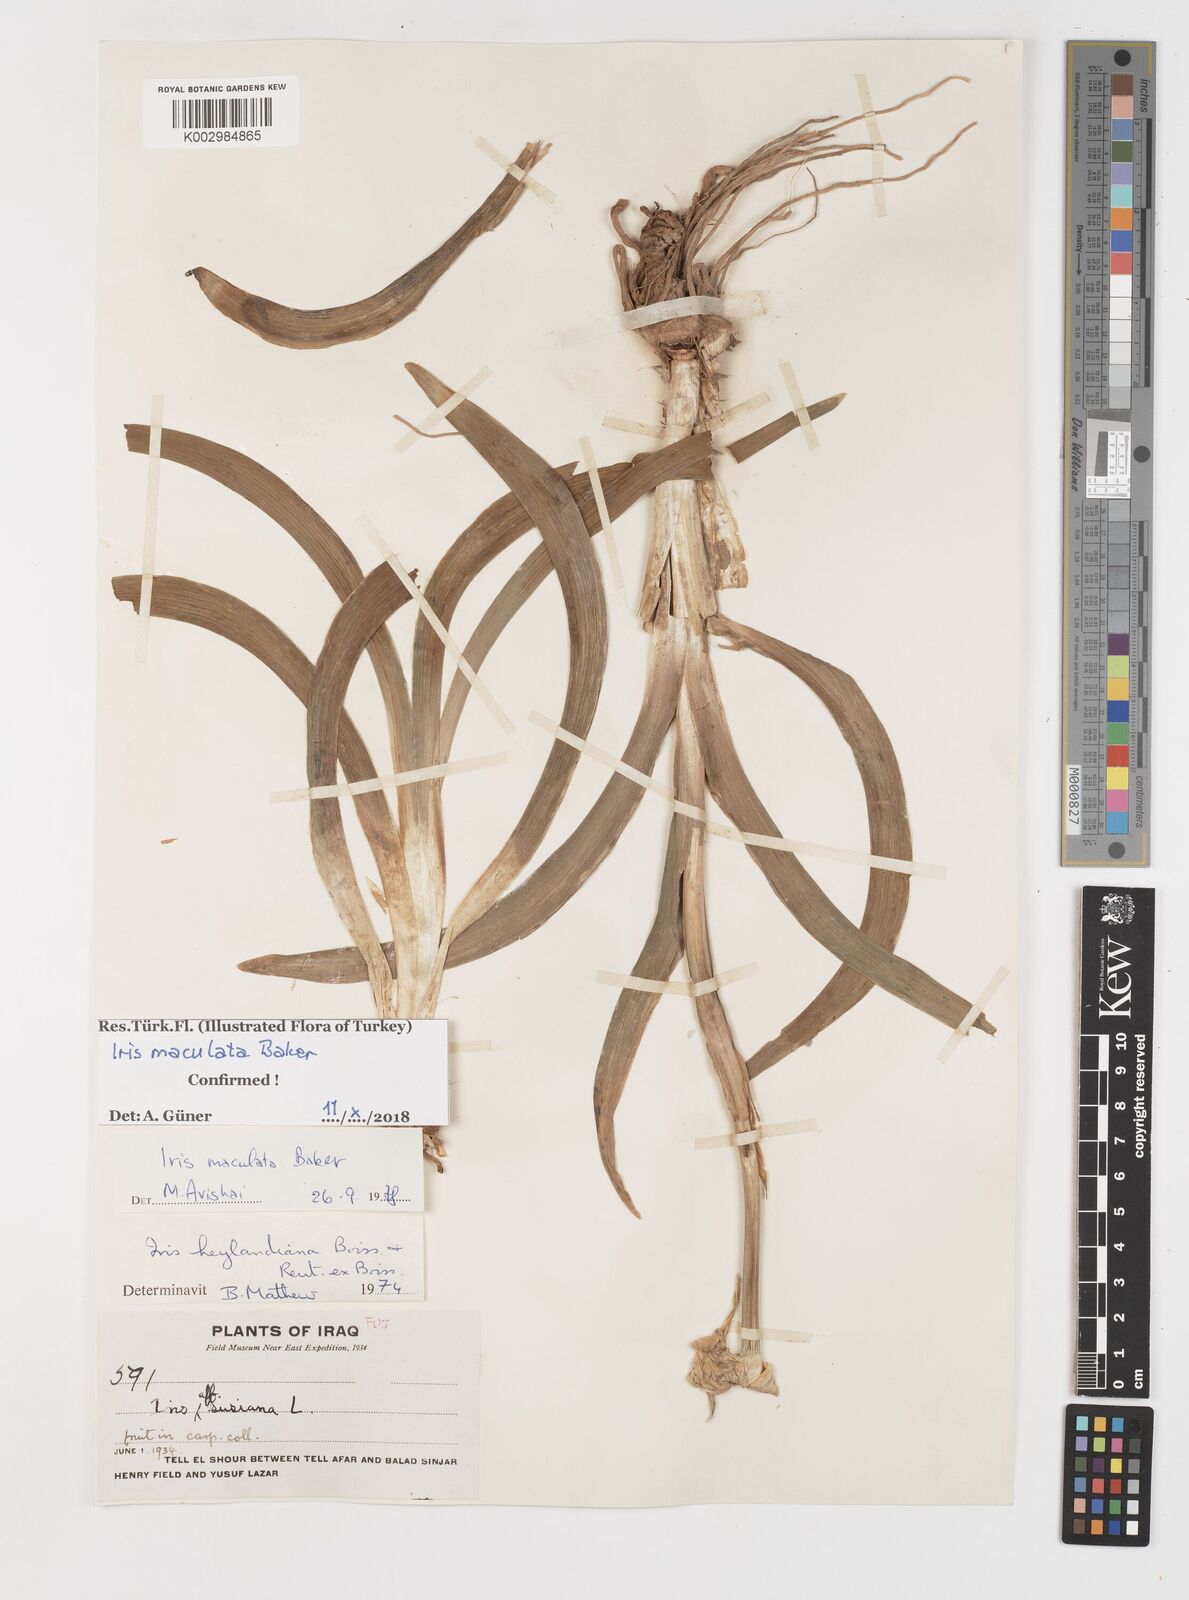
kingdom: Plantae
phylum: Tracheophyta
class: Liliopsida
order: Asparagales
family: Iridaceae
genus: Iris
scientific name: Iris maculata
